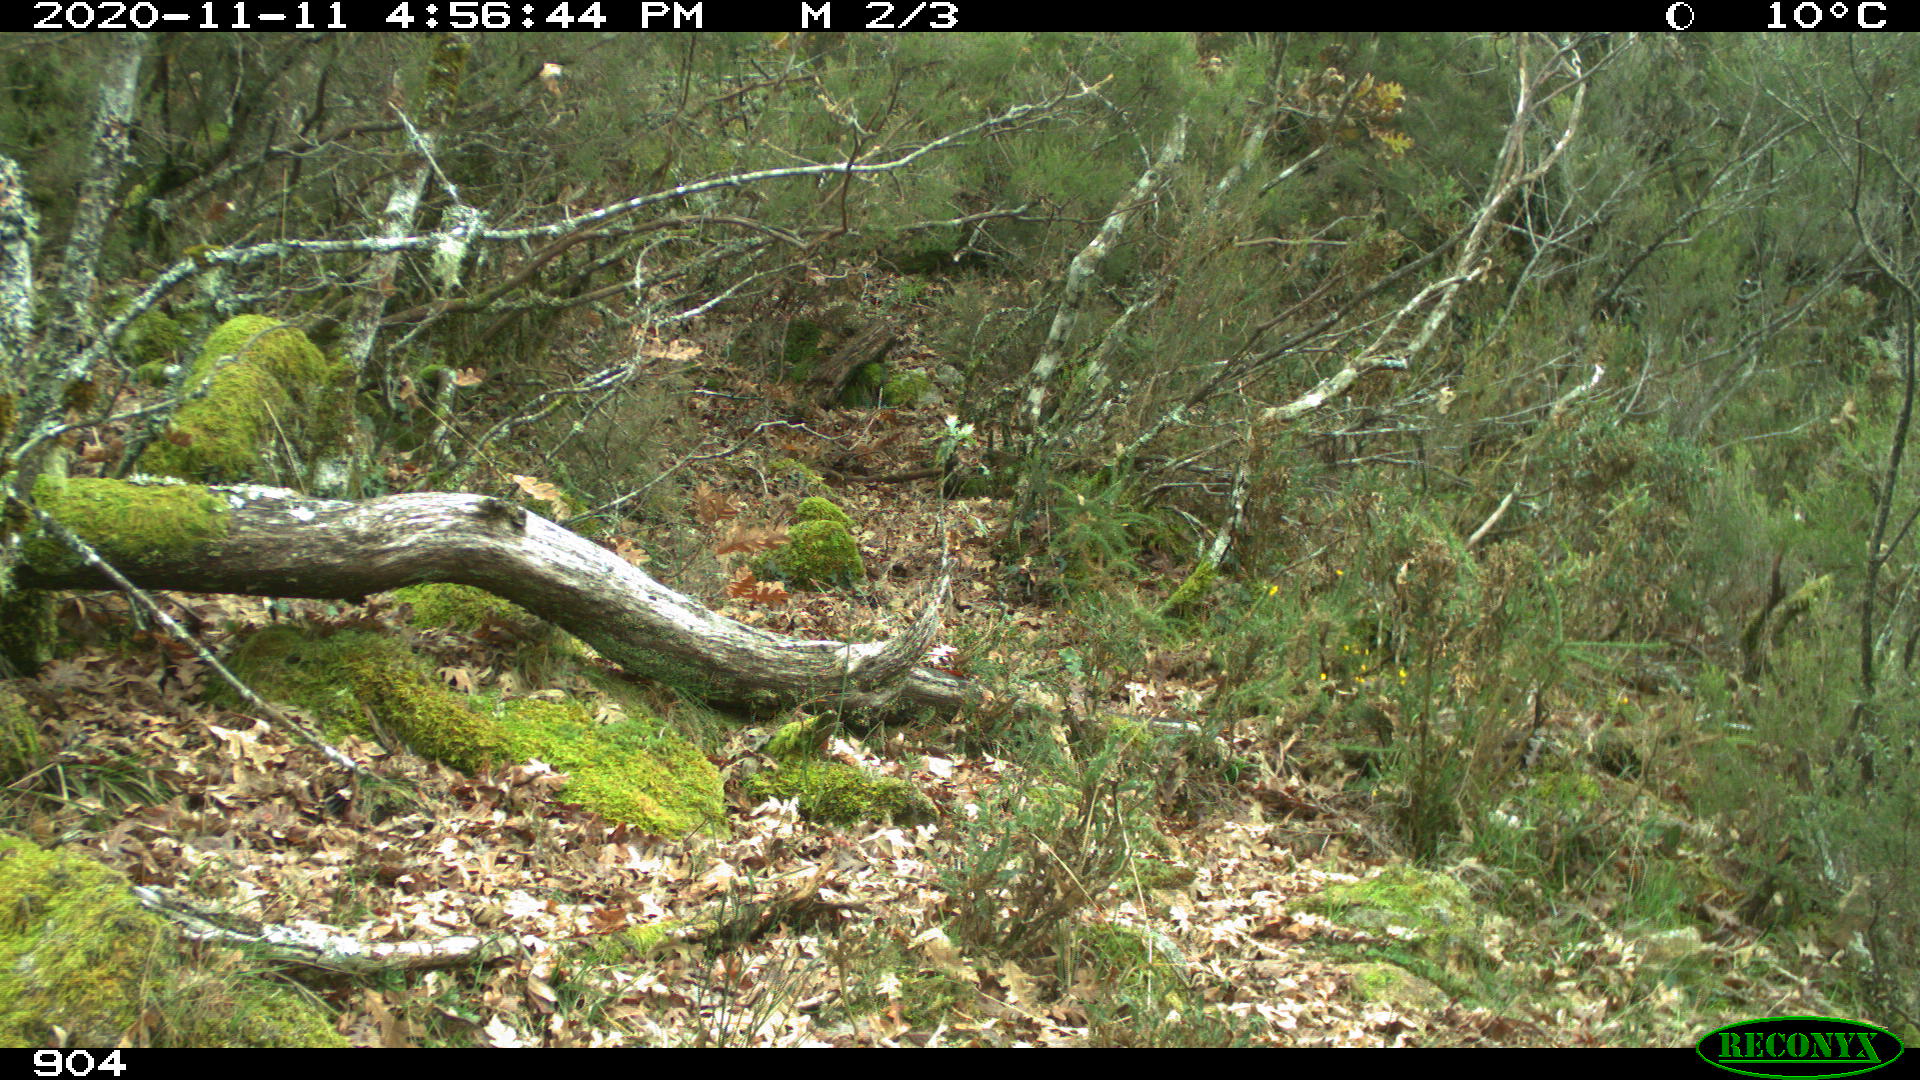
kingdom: Animalia
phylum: Chordata
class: Mammalia
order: Artiodactyla
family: Bovidae
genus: Bos
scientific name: Bos taurus
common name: Domesticated cattle
